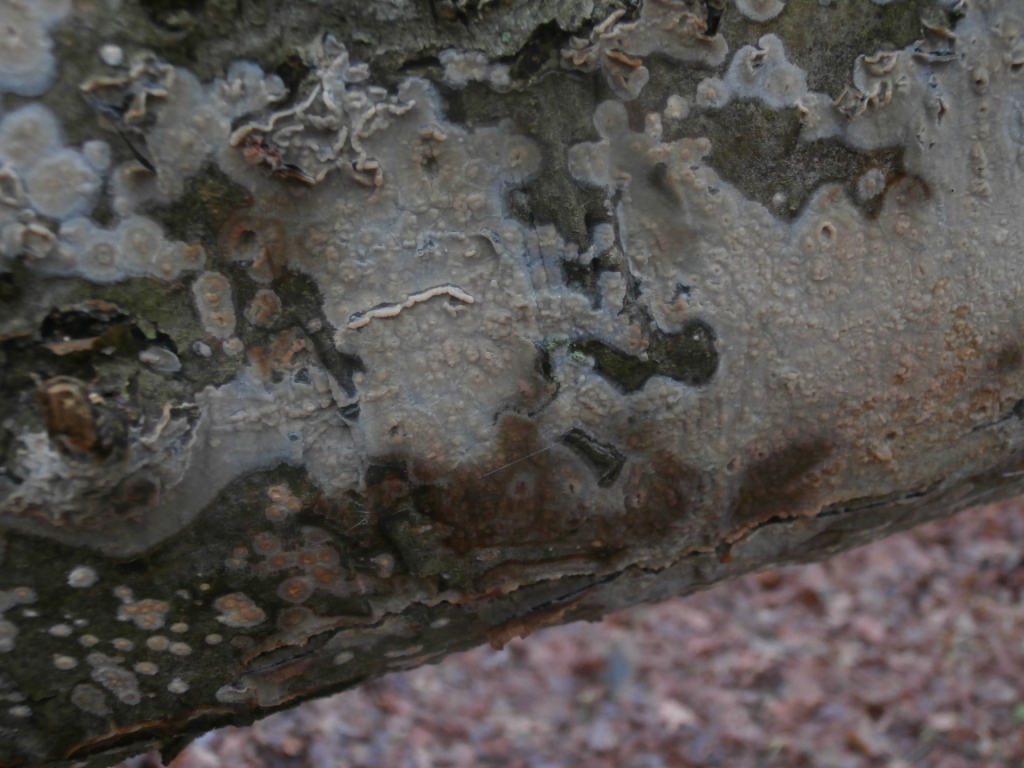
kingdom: Fungi
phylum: Basidiomycota
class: Agaricomycetes
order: Russulales
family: Peniophoraceae
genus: Peniophora
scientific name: Peniophora quercina
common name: ege-voksskind
